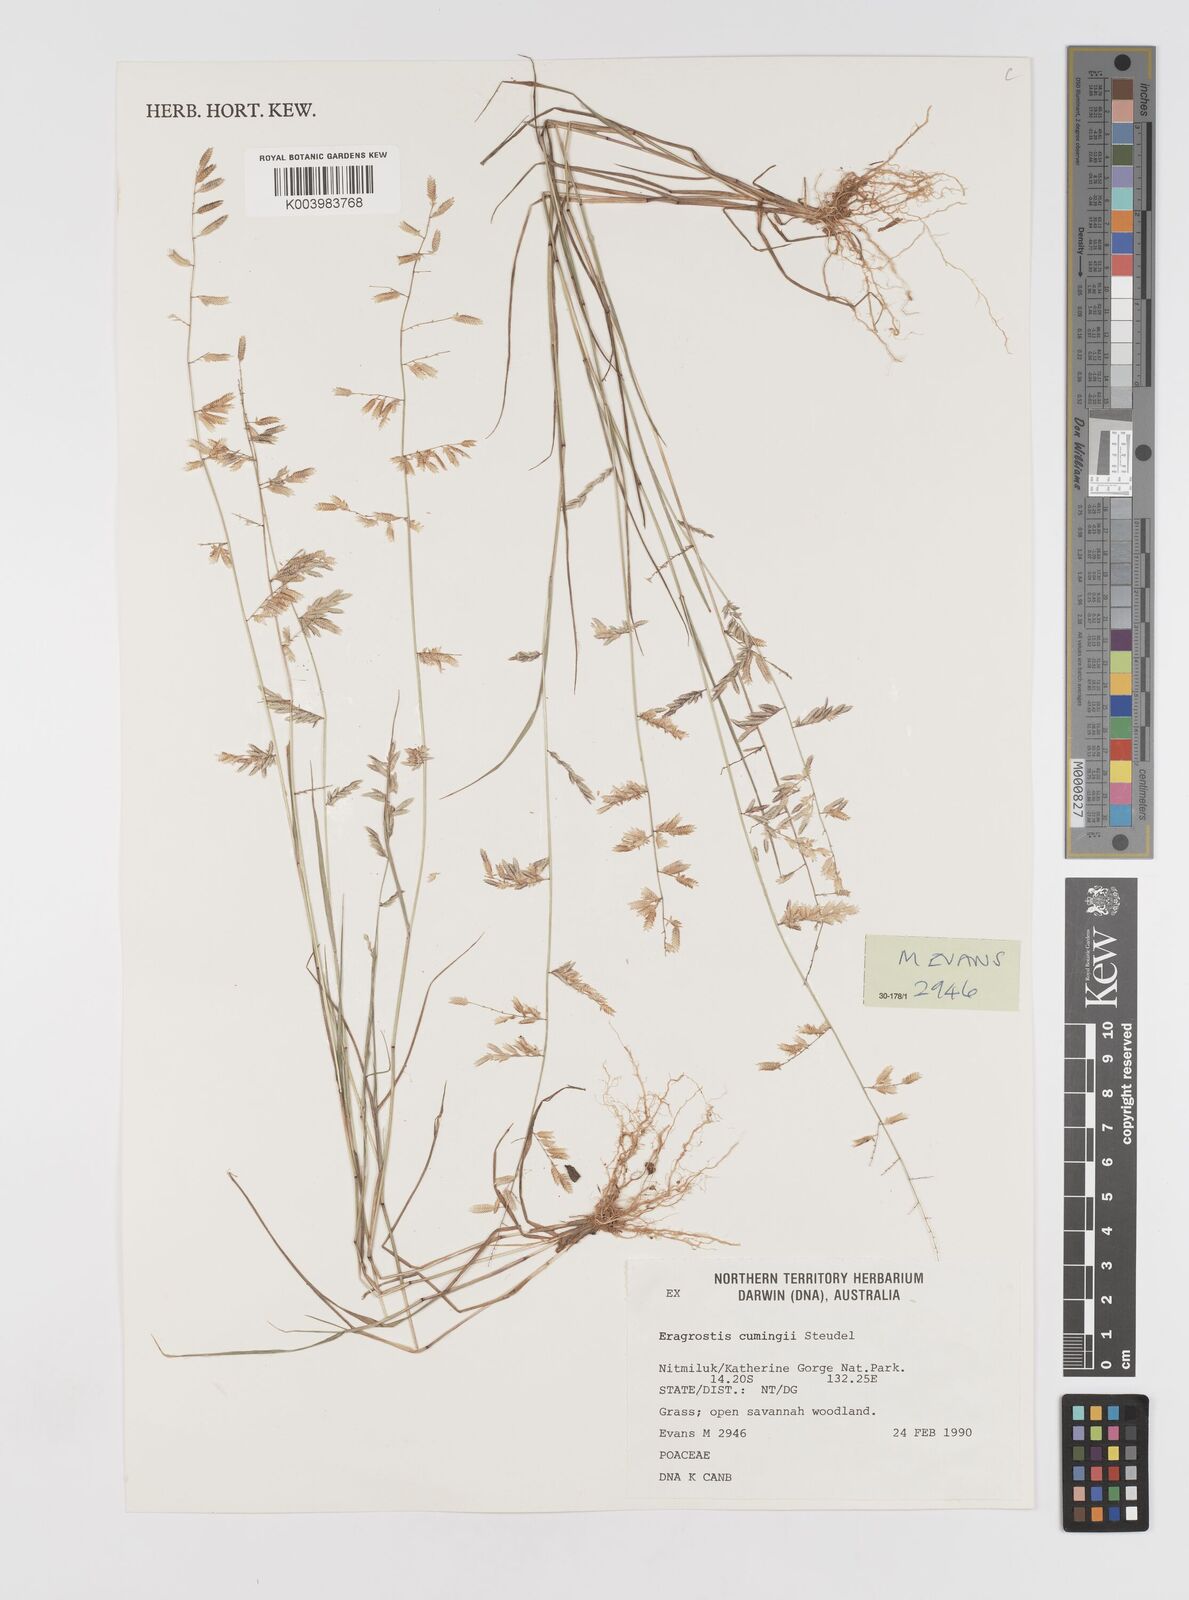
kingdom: Plantae
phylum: Tracheophyta
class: Liliopsida
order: Poales
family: Poaceae
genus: Eragrostis
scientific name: Eragrostis cumingii
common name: Cuming's lovegrass
